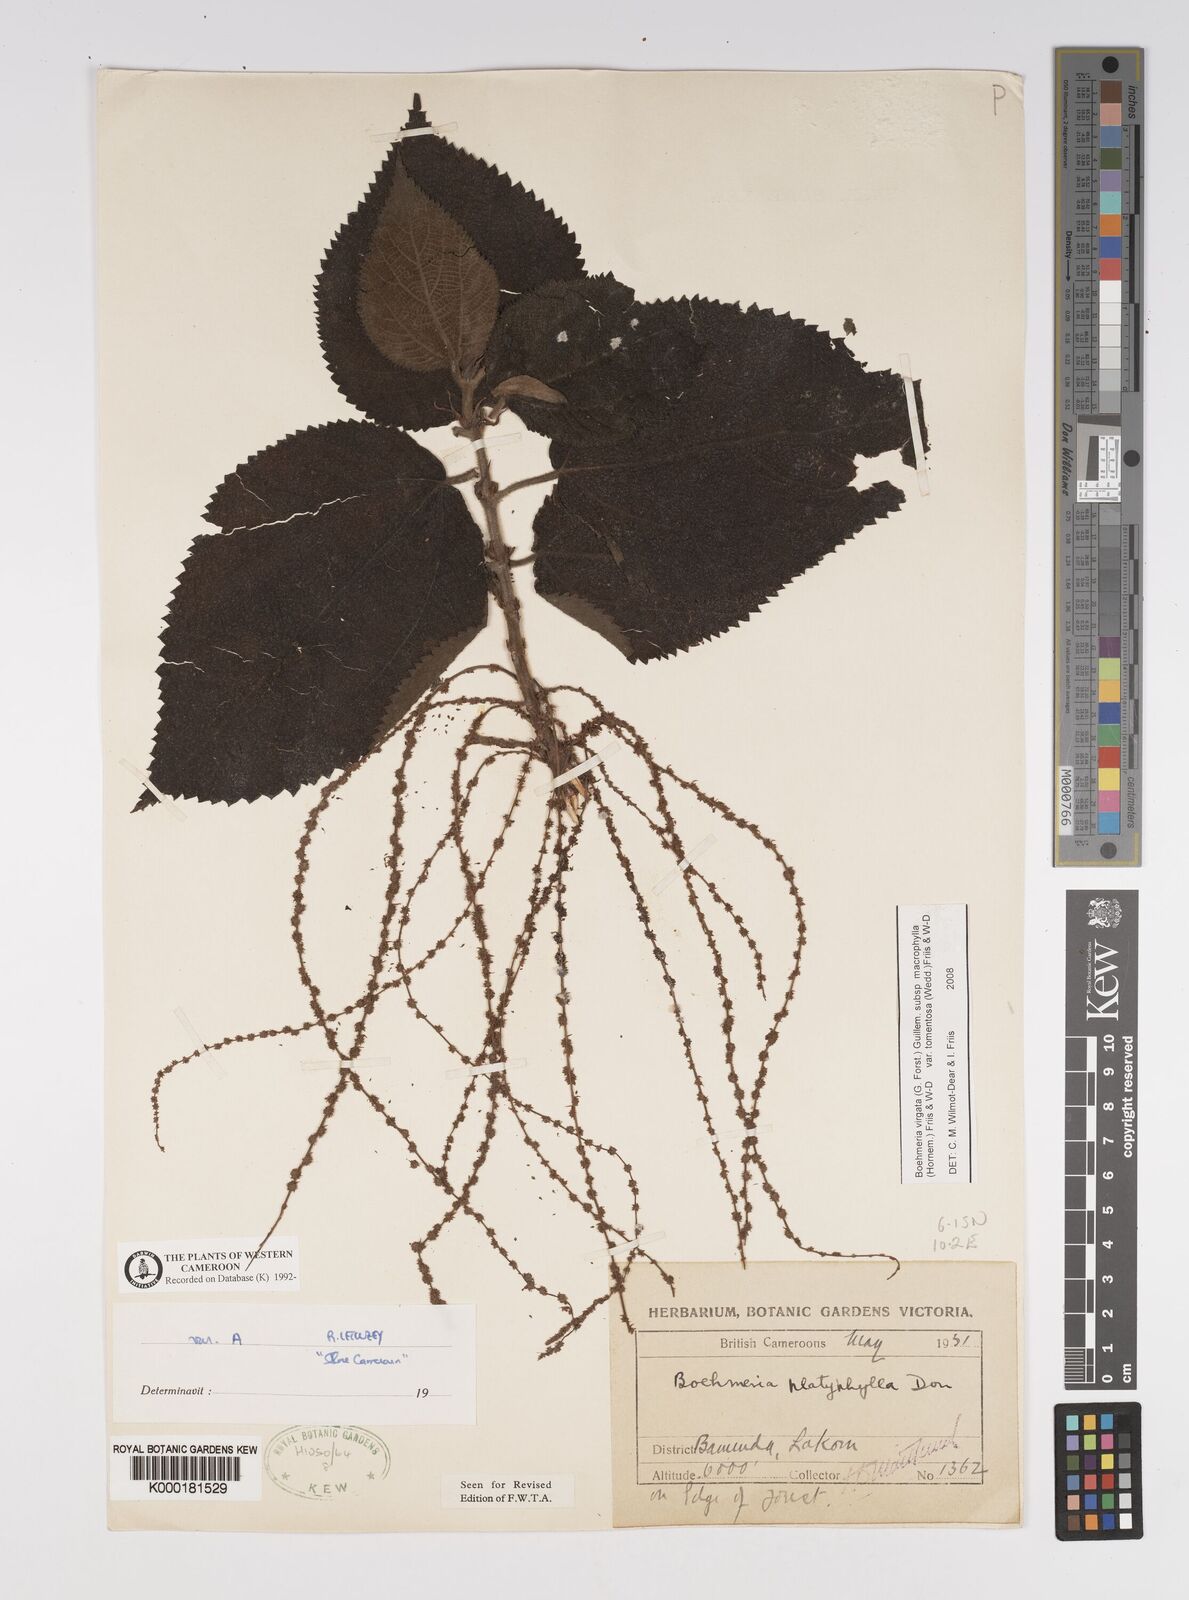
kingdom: Plantae
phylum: Tracheophyta
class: Magnoliopsida
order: Rosales
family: Urticaceae
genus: Boehmeria
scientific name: Boehmeria virgata
